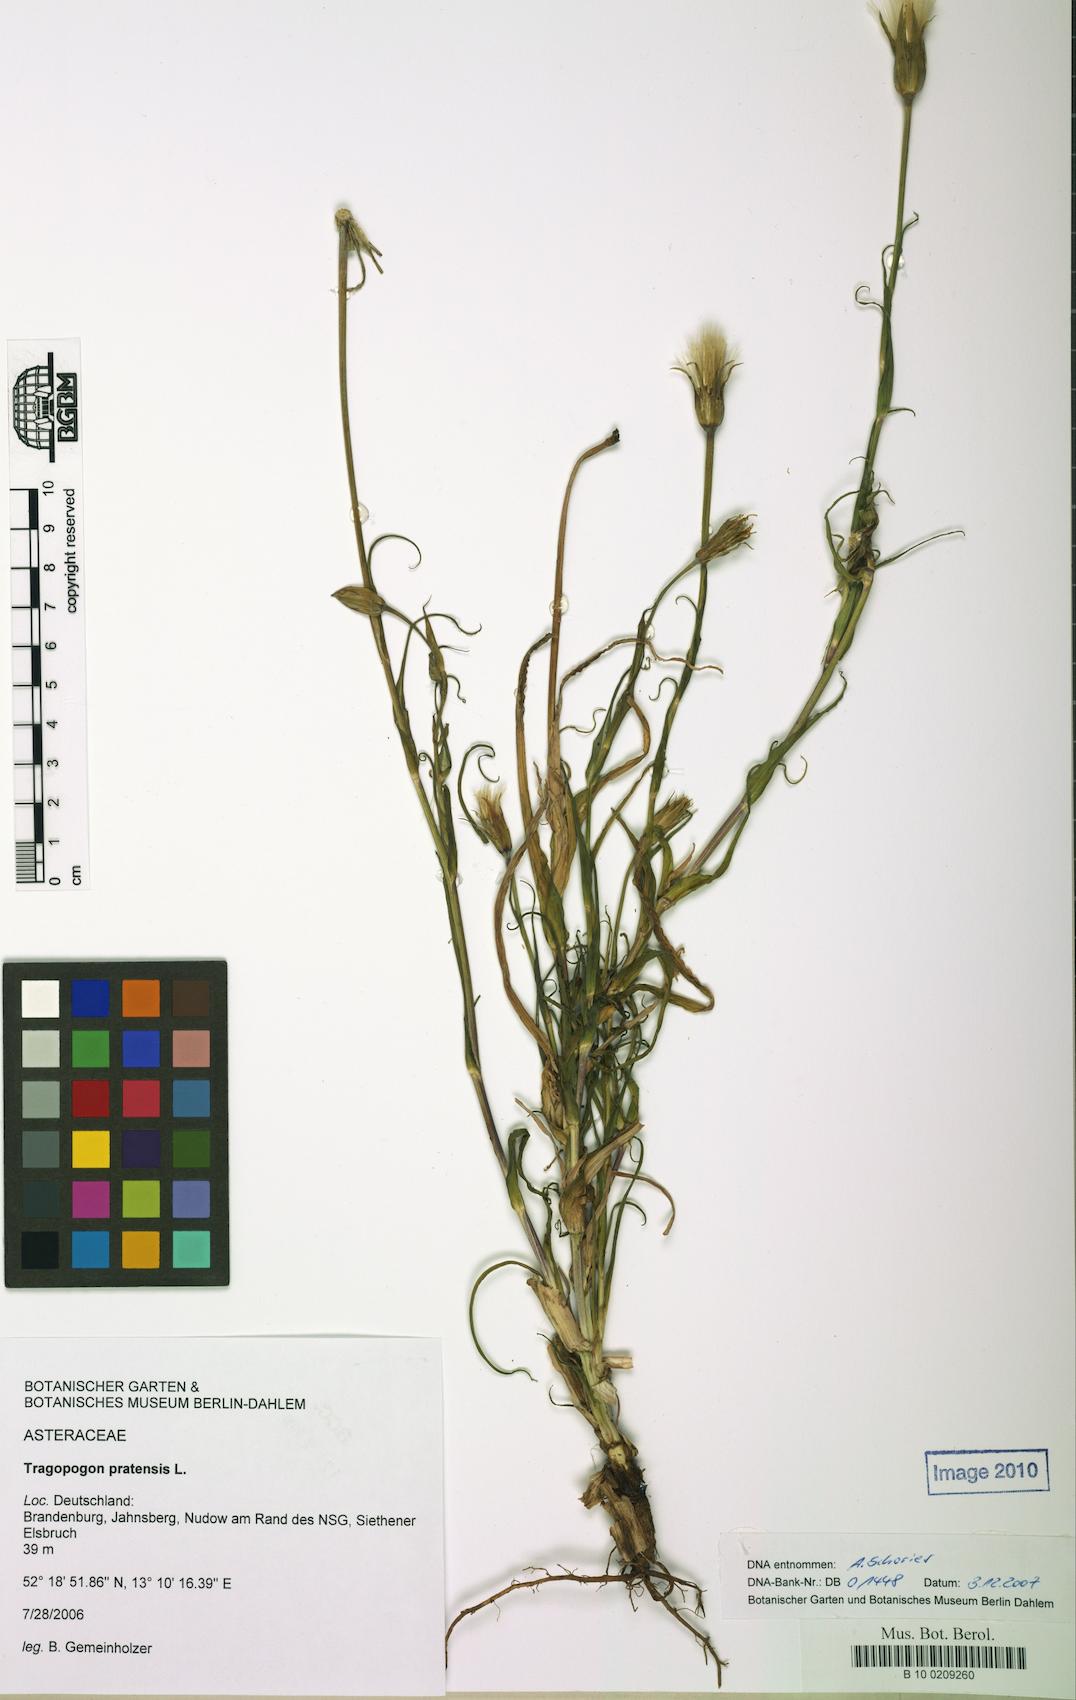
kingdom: Plantae
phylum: Tracheophyta
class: Magnoliopsida
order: Asterales
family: Asteraceae
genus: Tragopogon
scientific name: Tragopogon pratensis
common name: Goat's-beard
